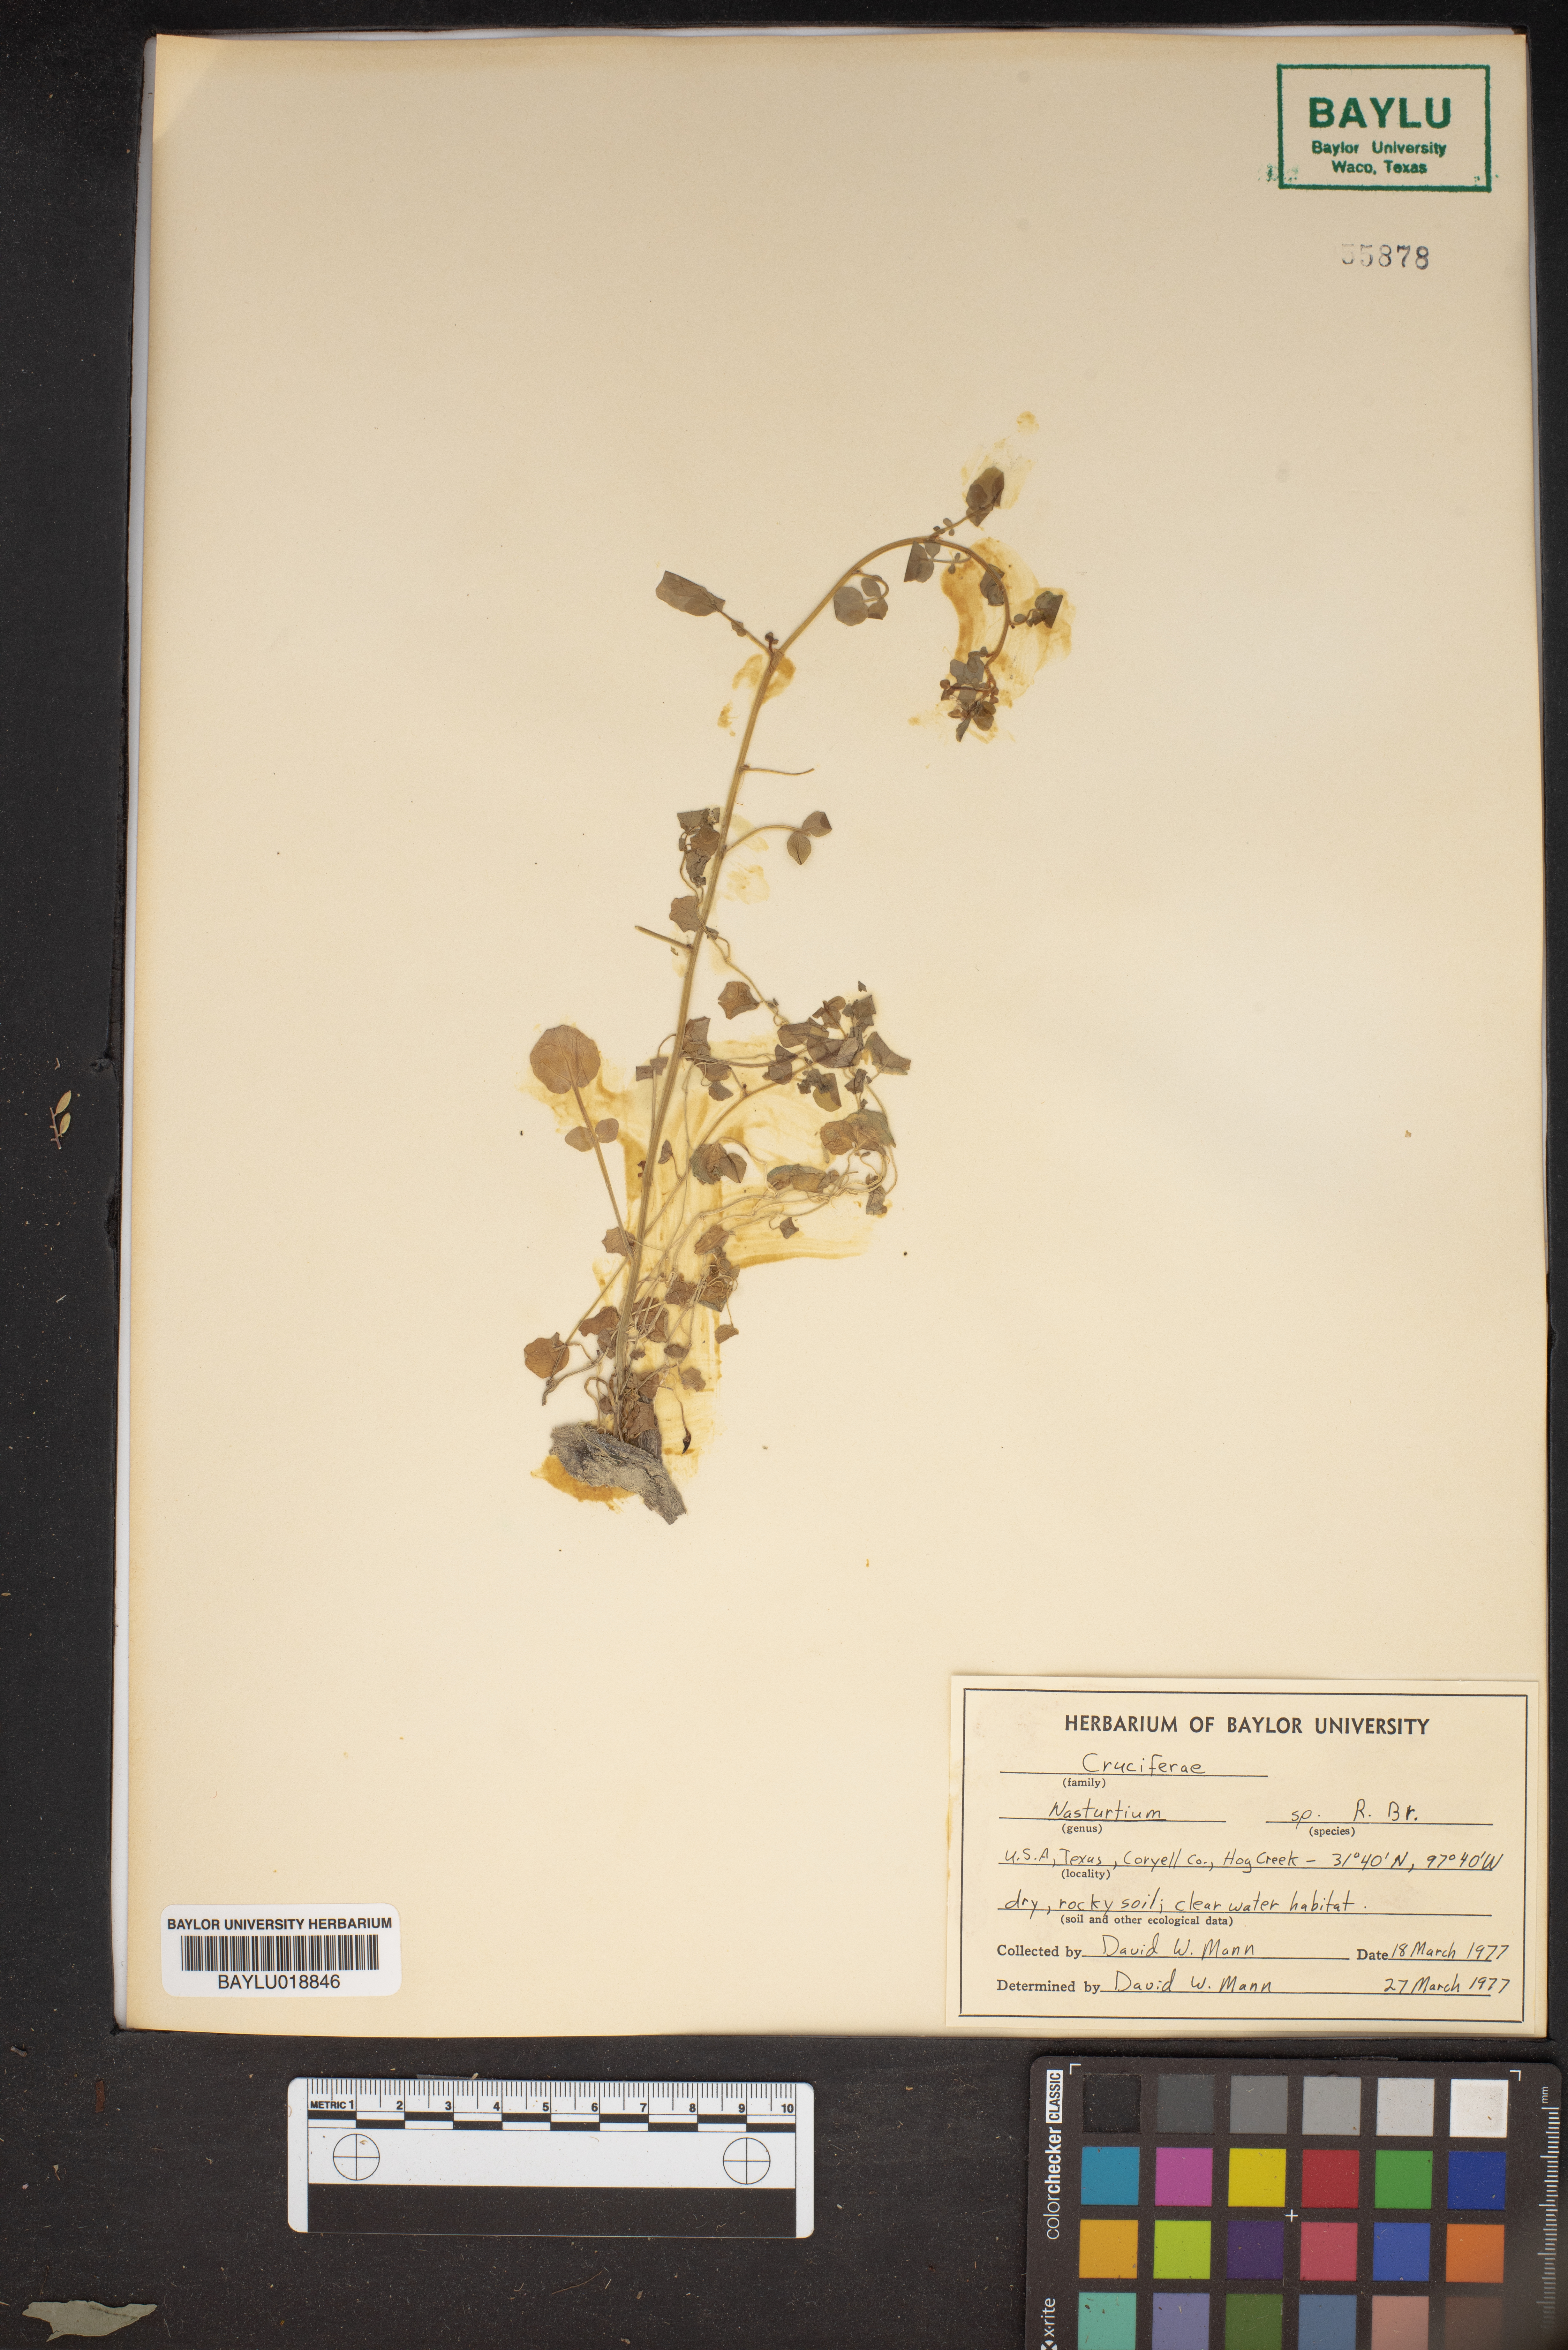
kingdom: Plantae
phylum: Tracheophyta
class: Magnoliopsida
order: Brassicales
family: Brassicaceae
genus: Nasturtium
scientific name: Nasturtium
